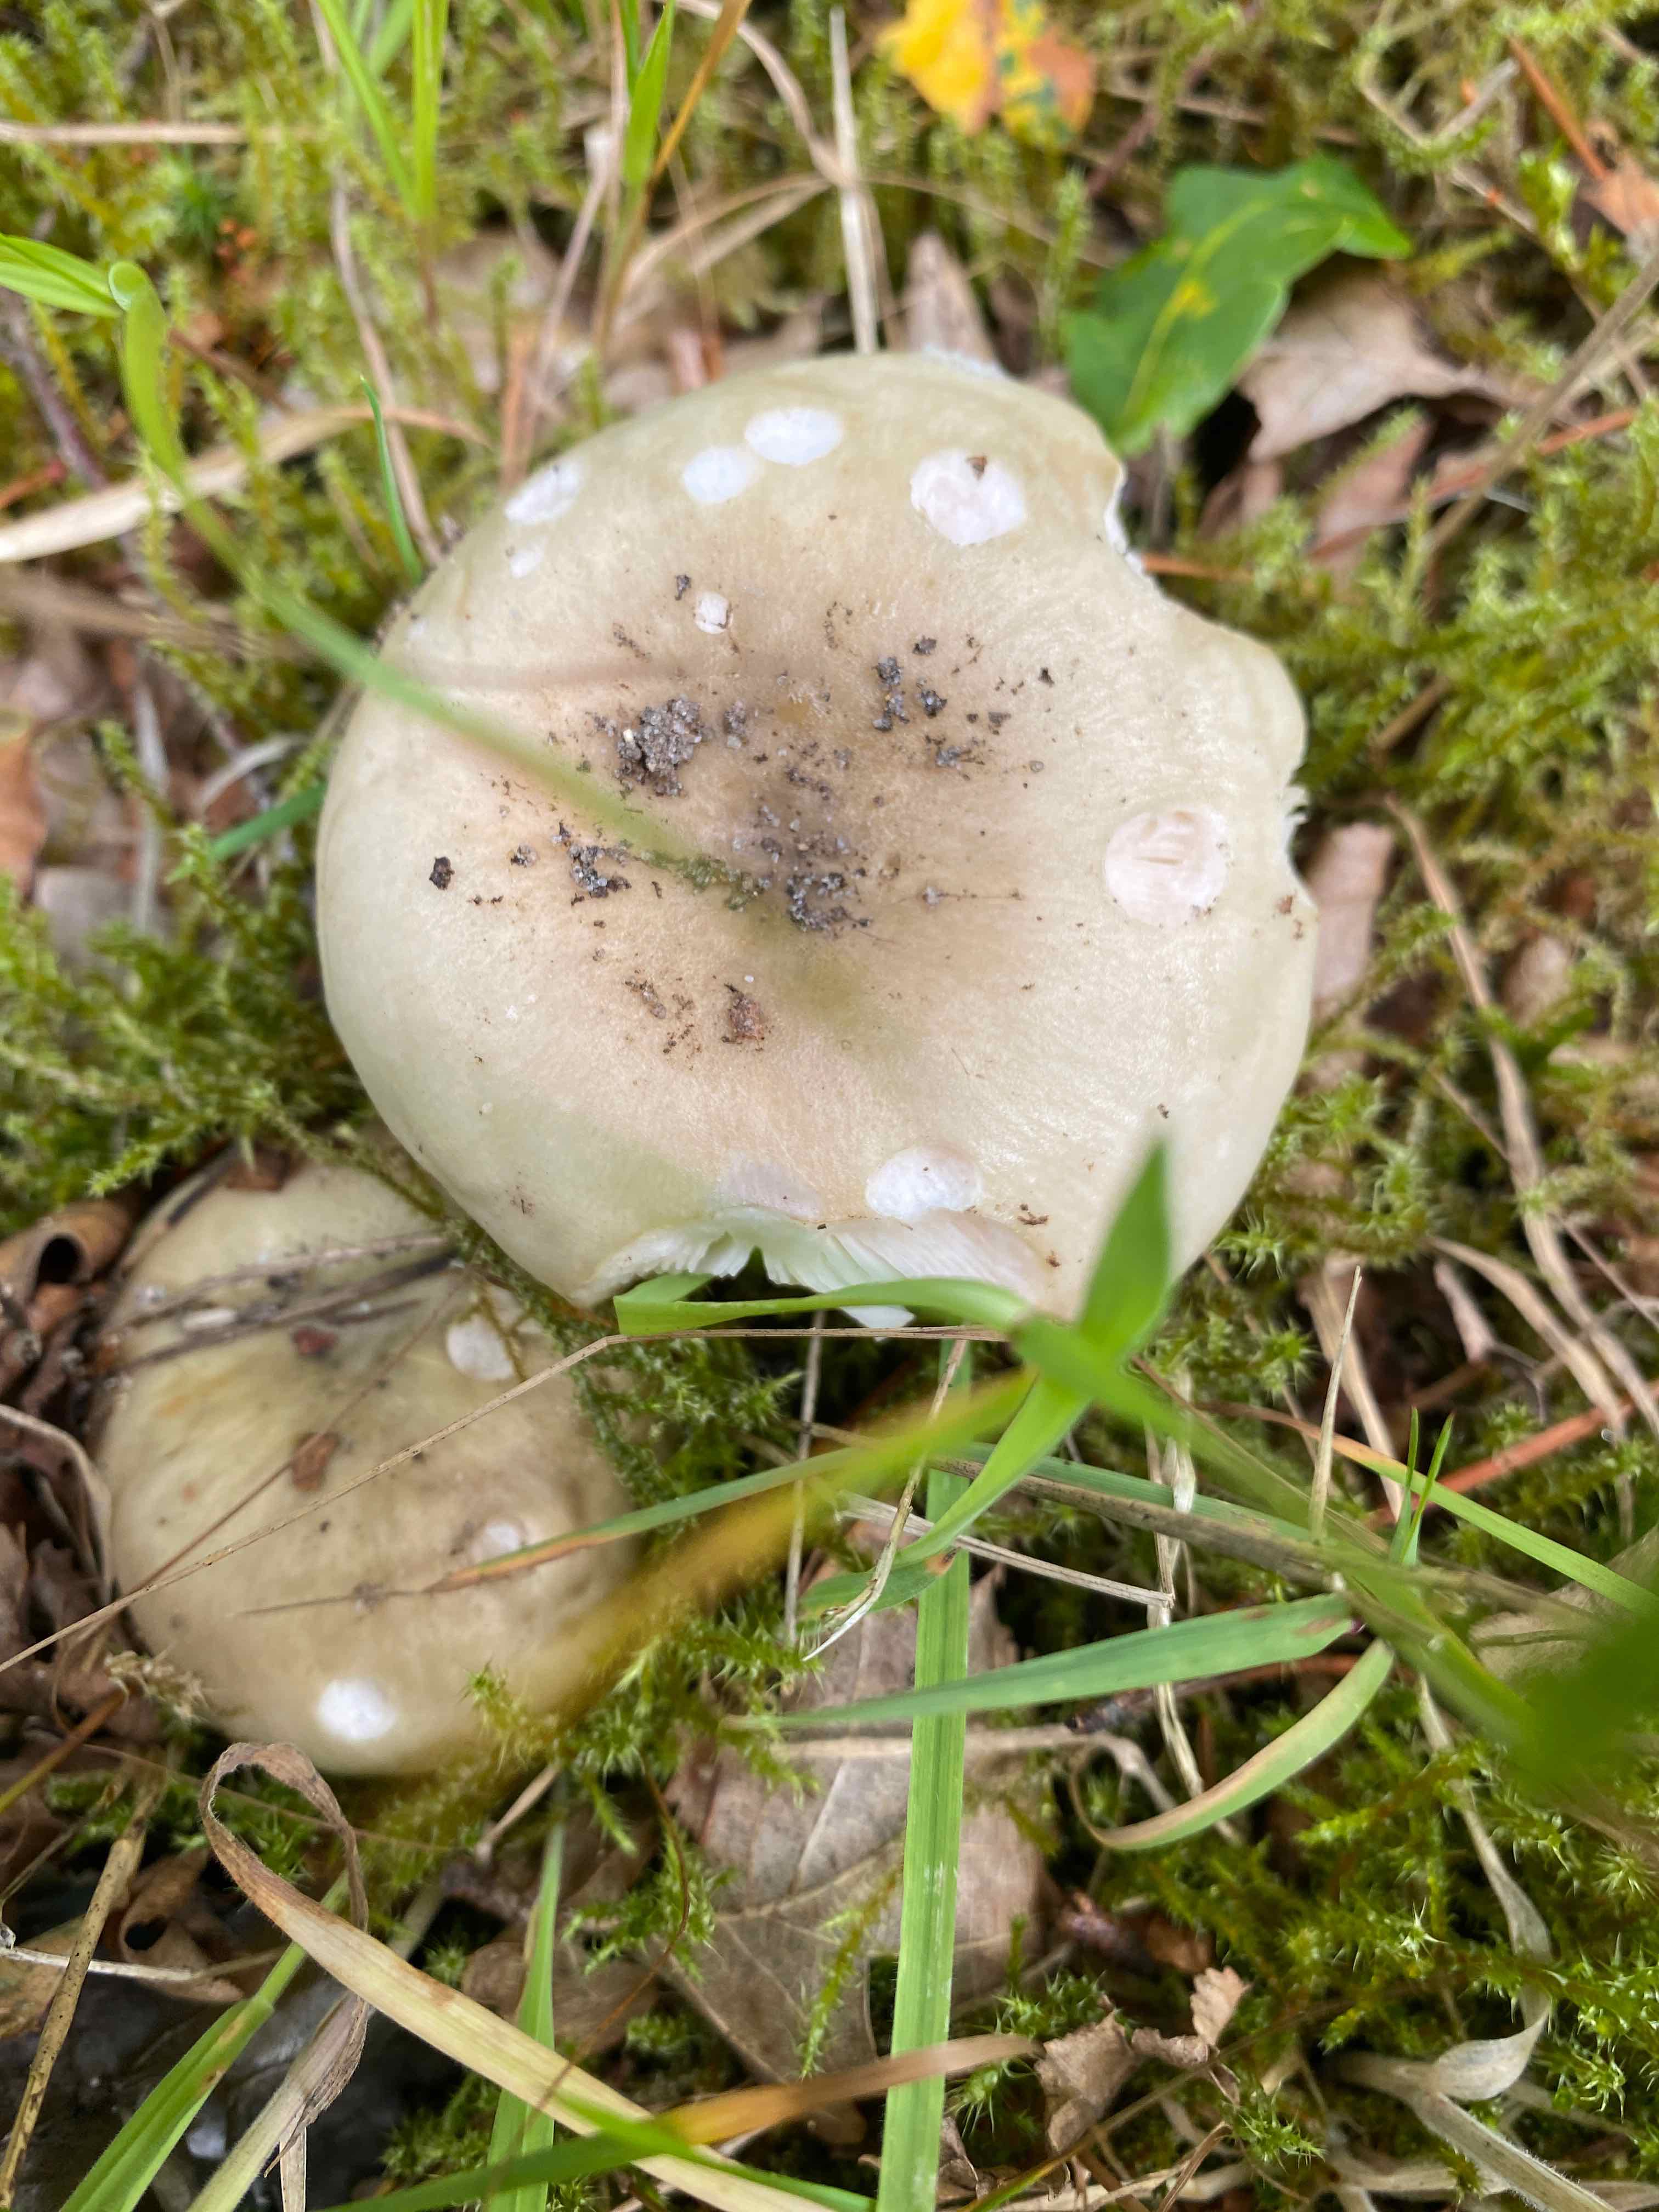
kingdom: Fungi
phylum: Basidiomycota
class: Agaricomycetes
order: Russulales
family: Russulaceae
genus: Russula
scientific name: Russula aeruginea
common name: græsgrøn skørhat
